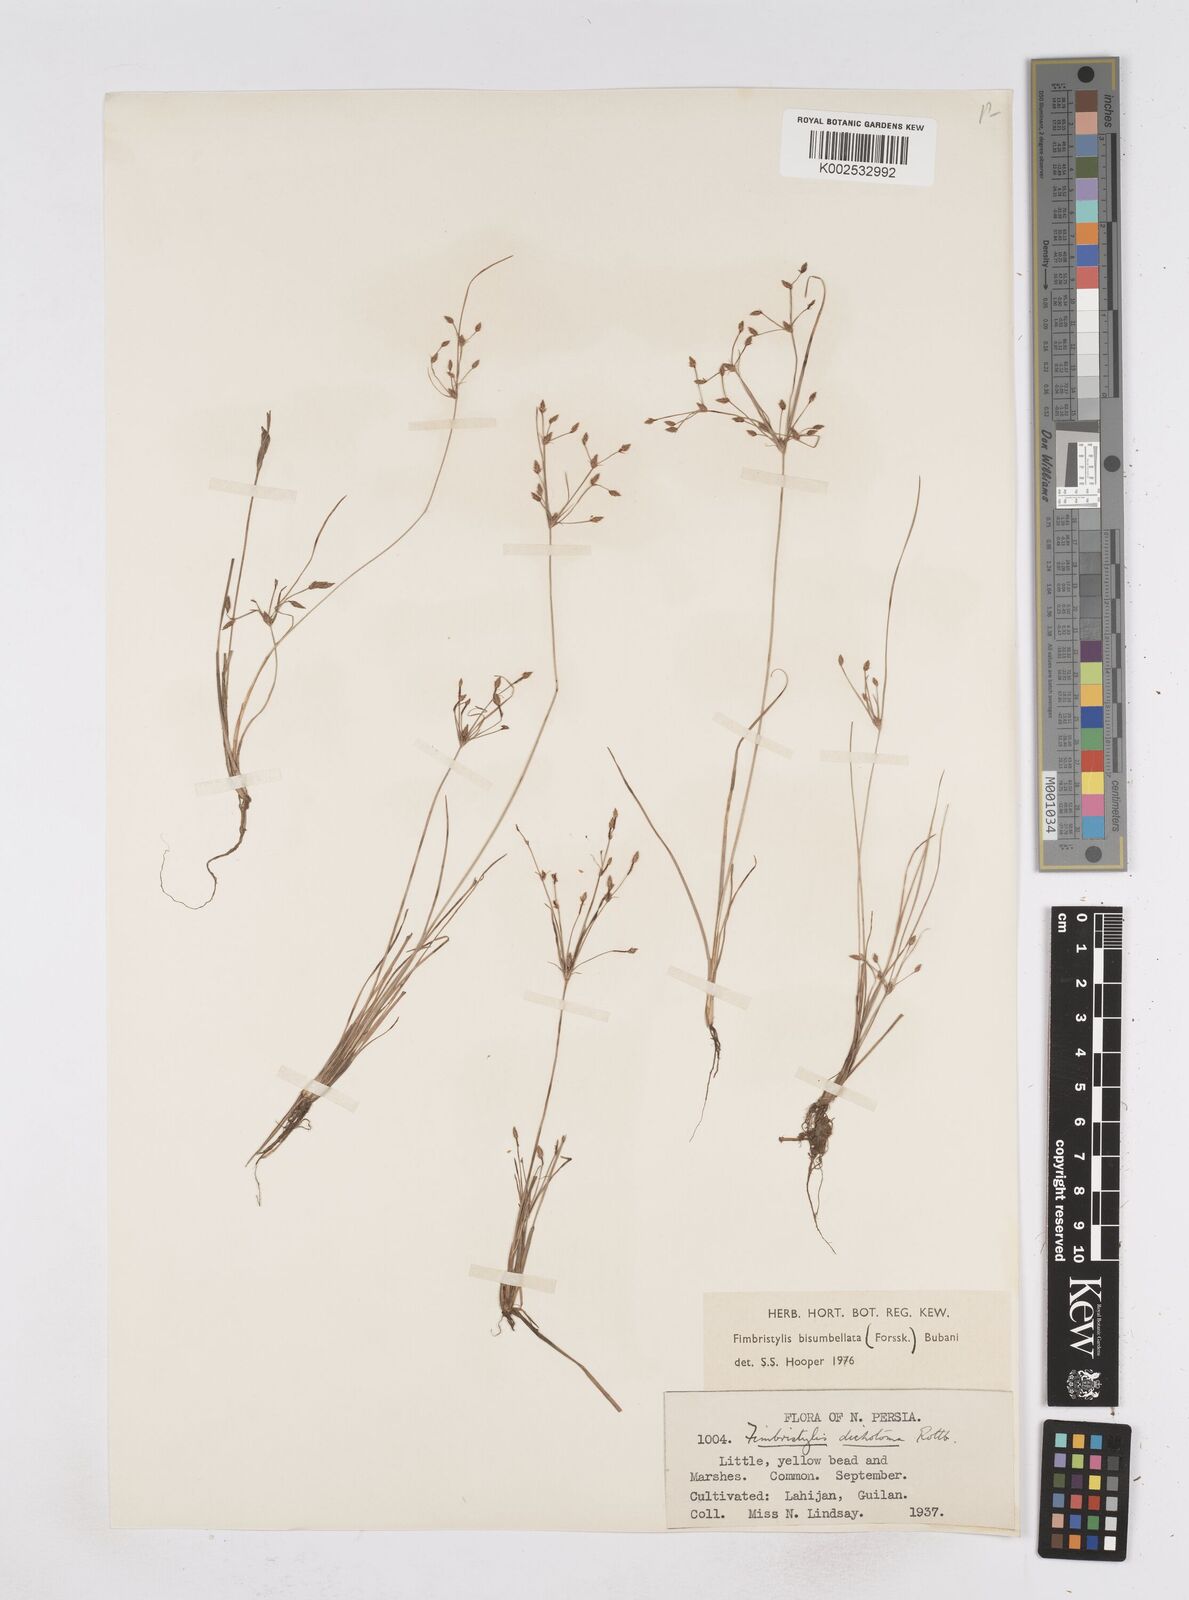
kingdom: Plantae
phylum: Tracheophyta
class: Liliopsida
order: Poales
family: Cyperaceae
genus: Fimbristylis
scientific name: Fimbristylis bisumbellata
